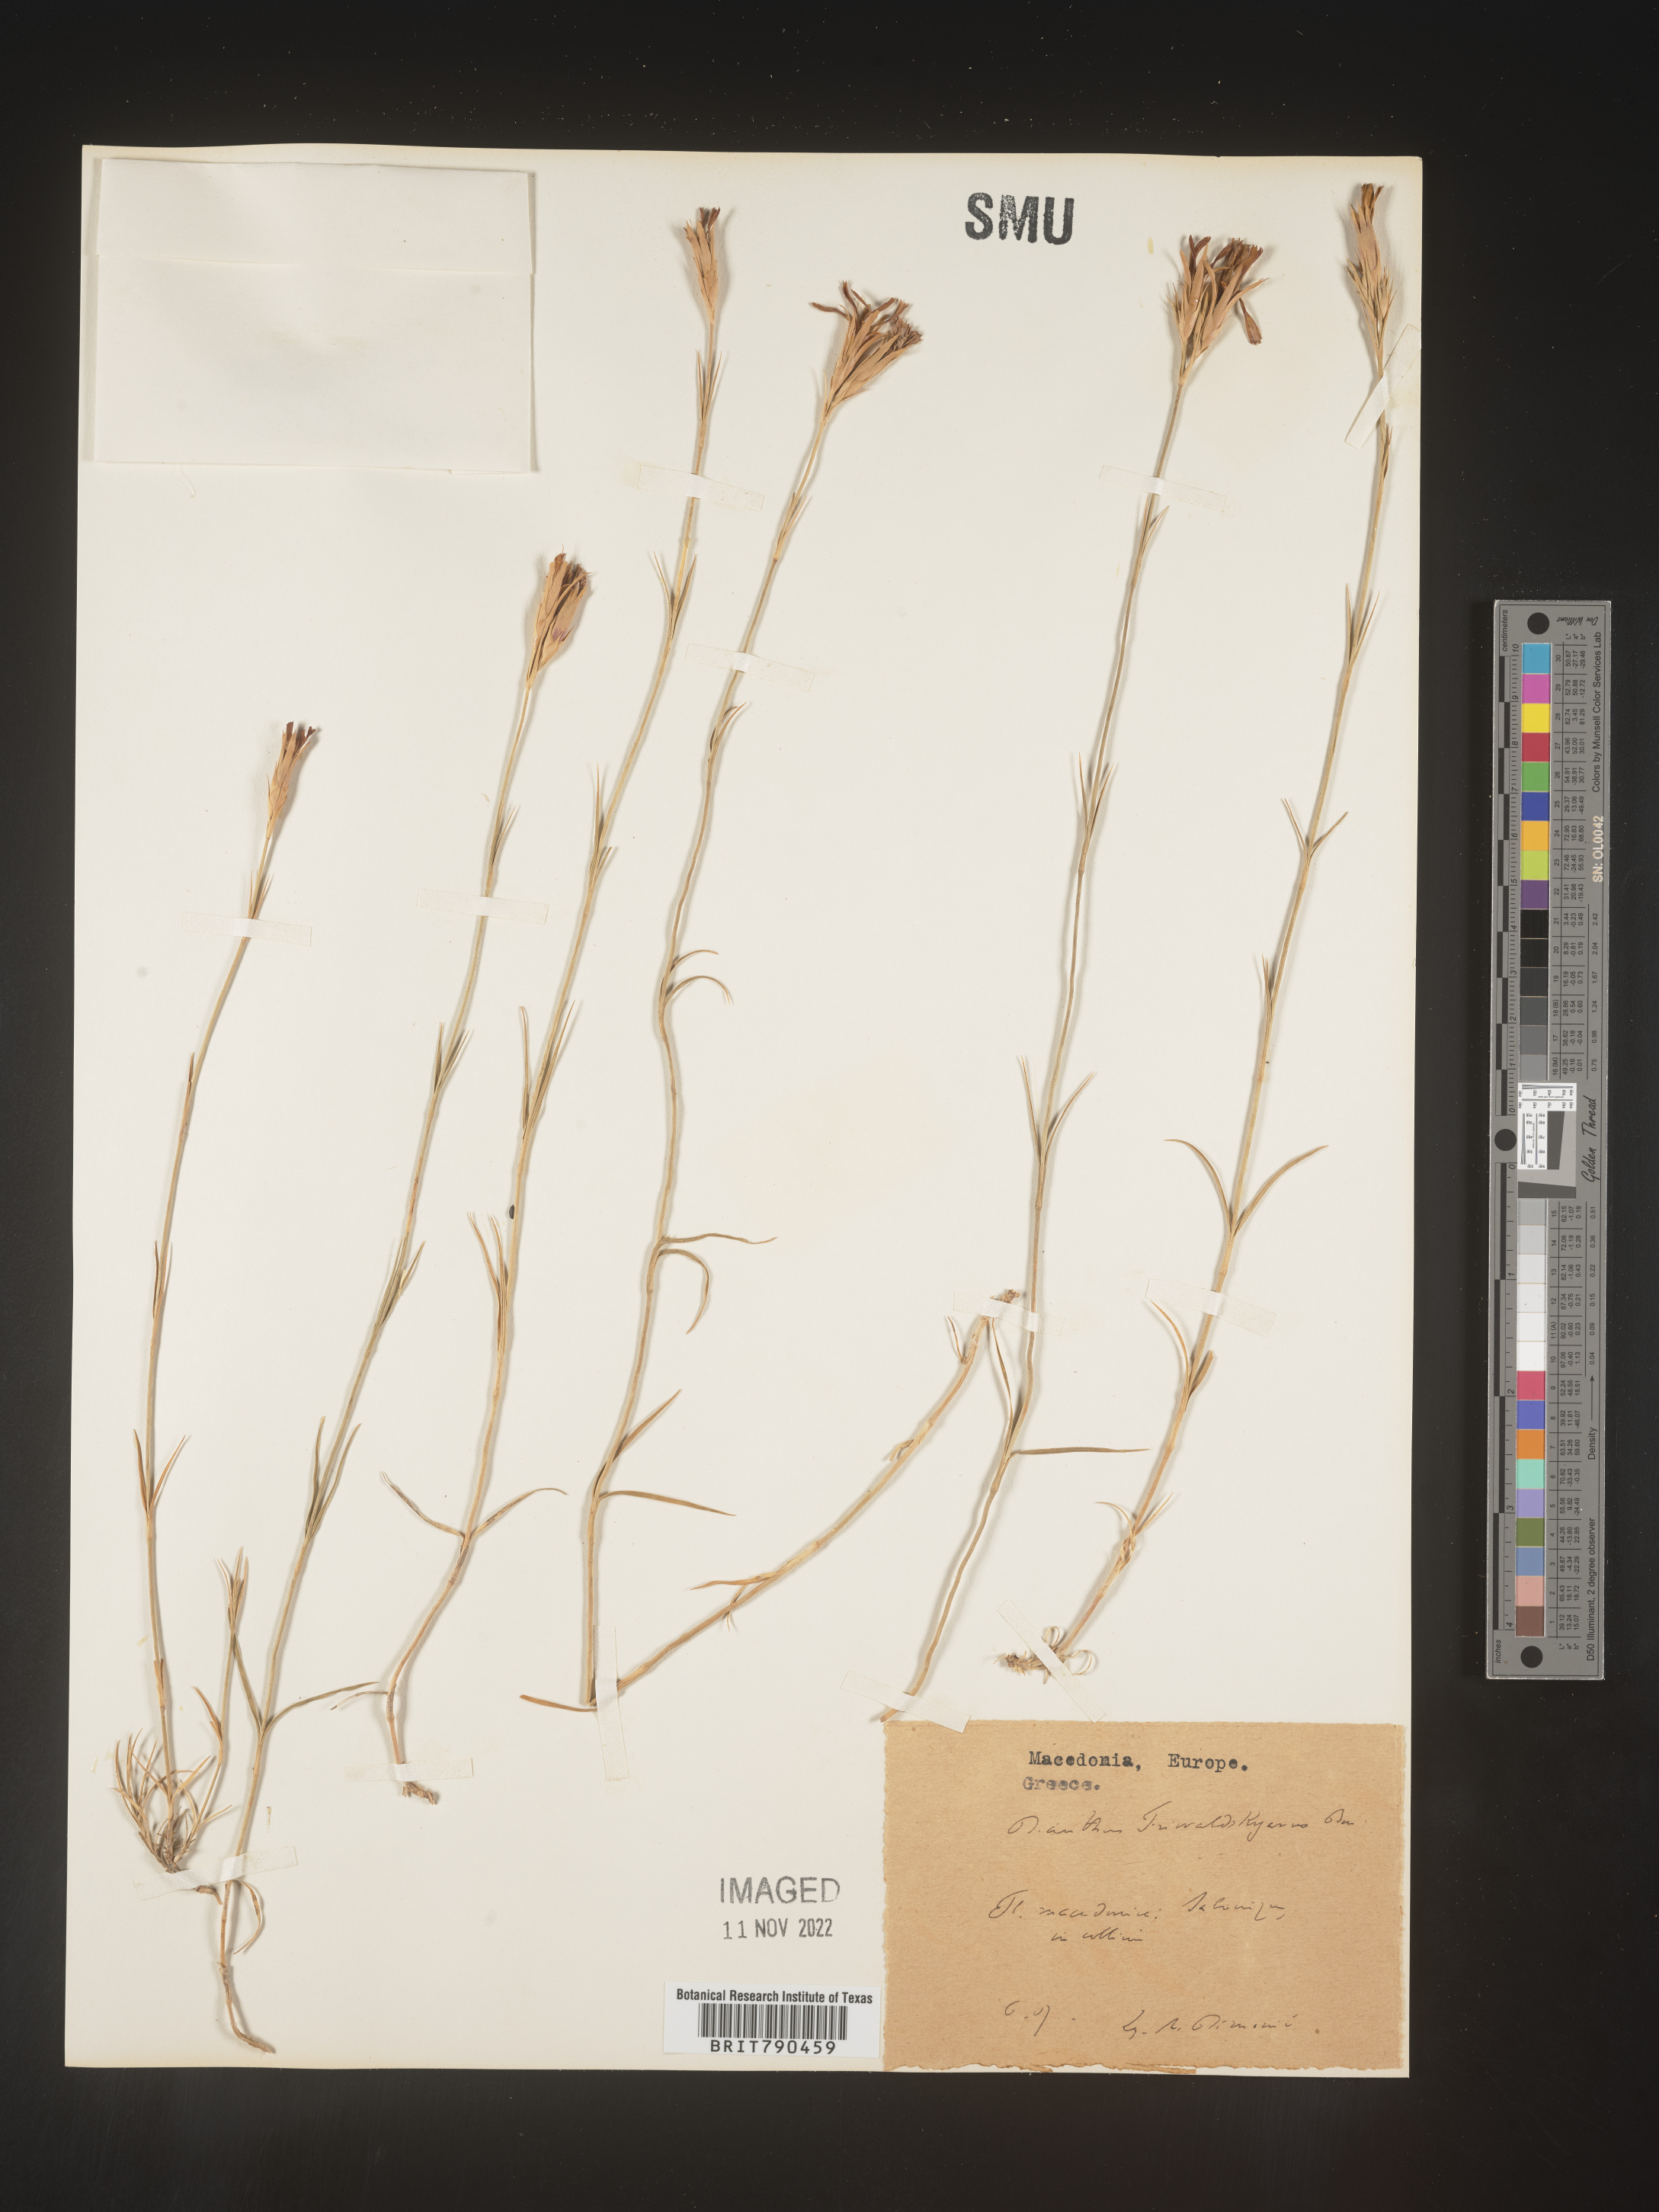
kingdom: Plantae
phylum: Tracheophyta
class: Magnoliopsida
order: Caryophyllales
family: Caryophyllaceae
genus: Dianthus
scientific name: Dianthus
